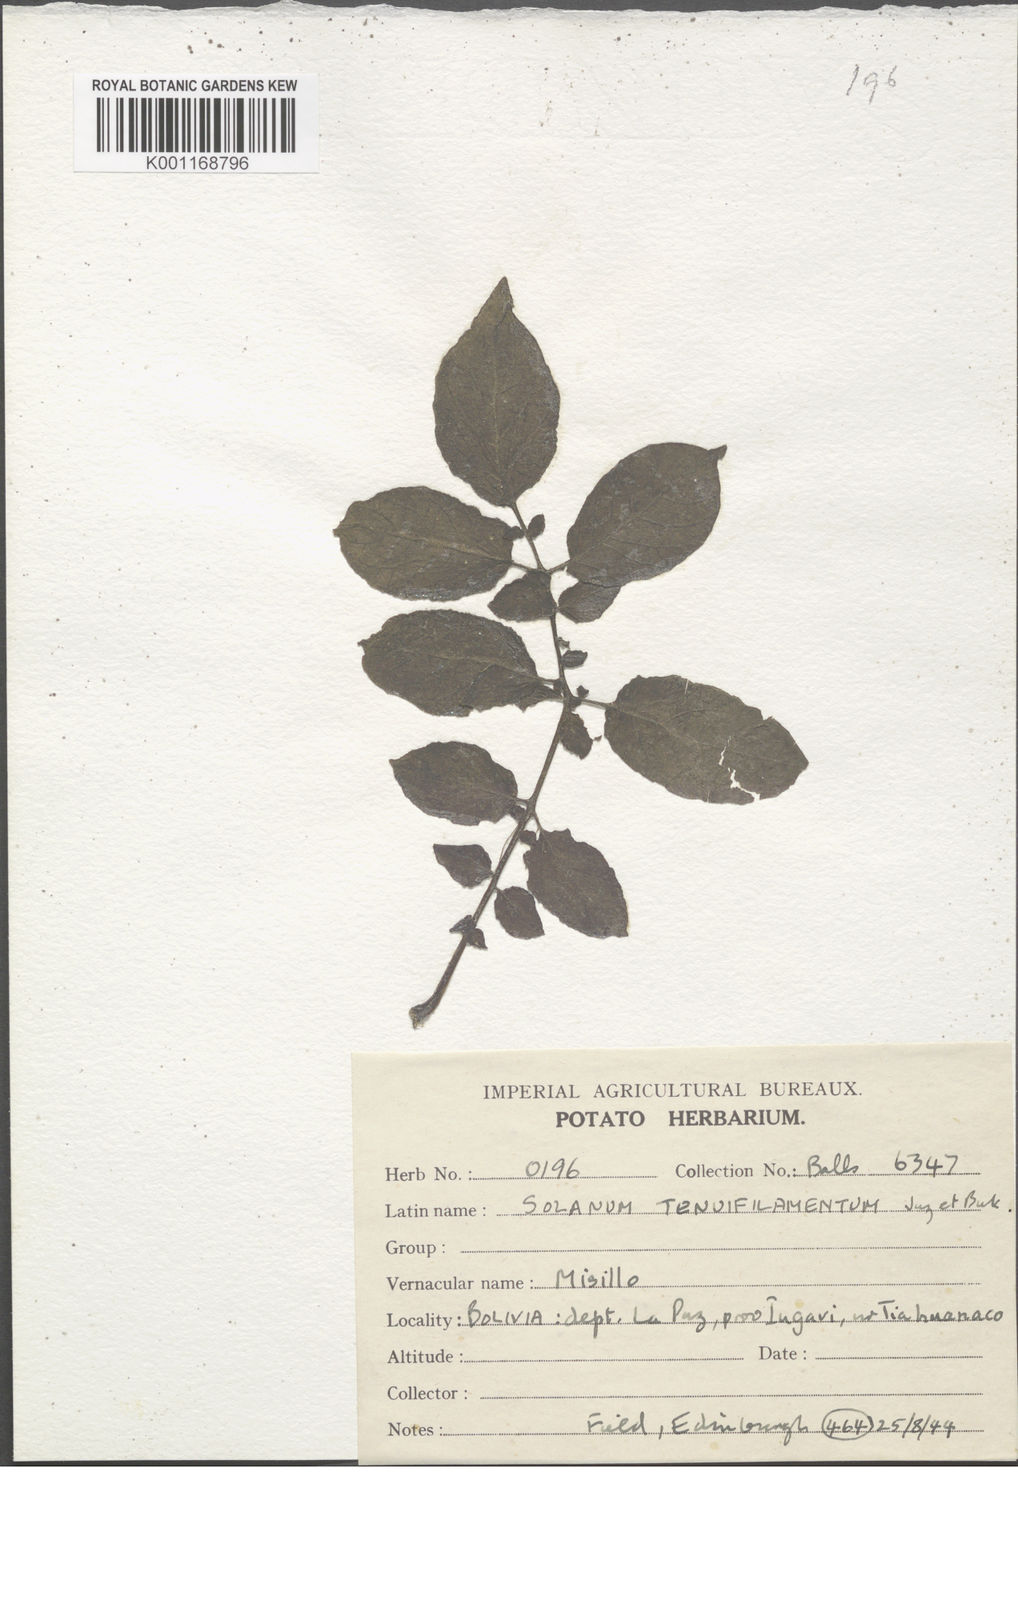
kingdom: Plantae
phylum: Tracheophyta
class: Magnoliopsida
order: Solanales
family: Solanaceae
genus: Solanum
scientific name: Solanum chaucha
